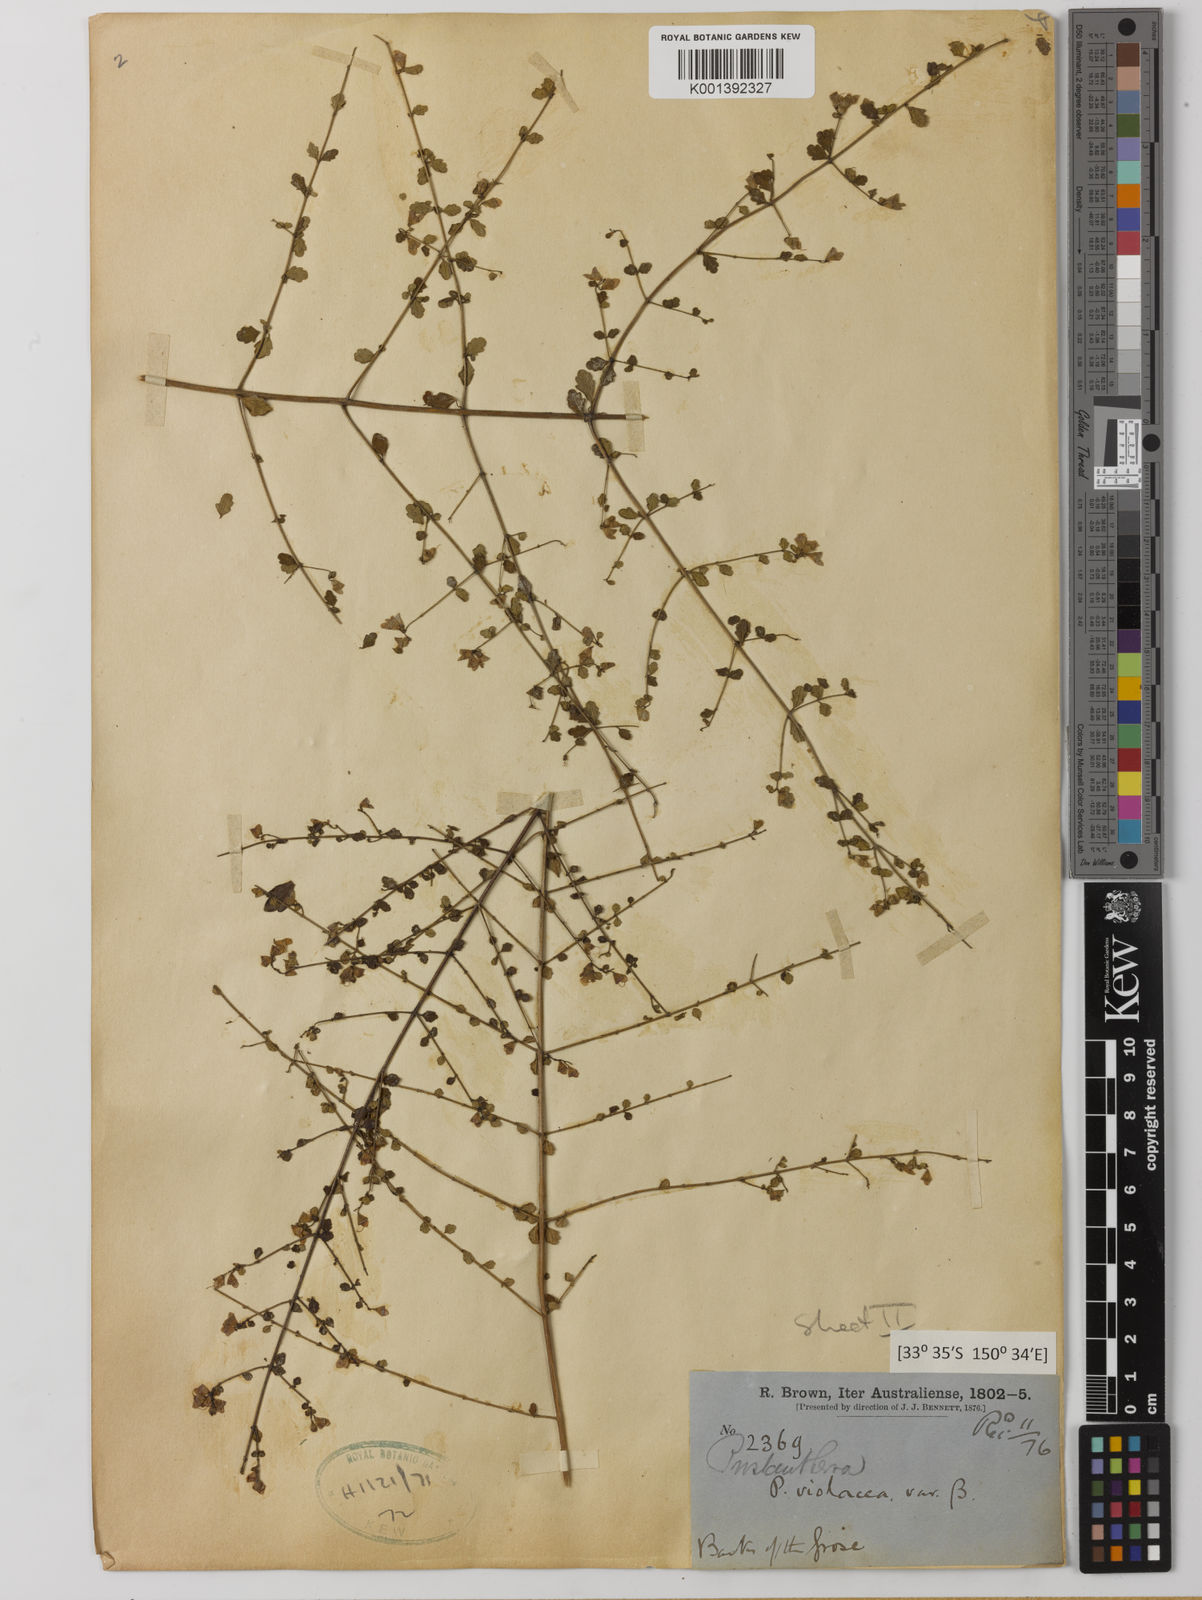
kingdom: Plantae
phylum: Tracheophyta
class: Magnoliopsida
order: Lamiales
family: Lamiaceae
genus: Prostanthera
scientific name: Prostanthera violacea
